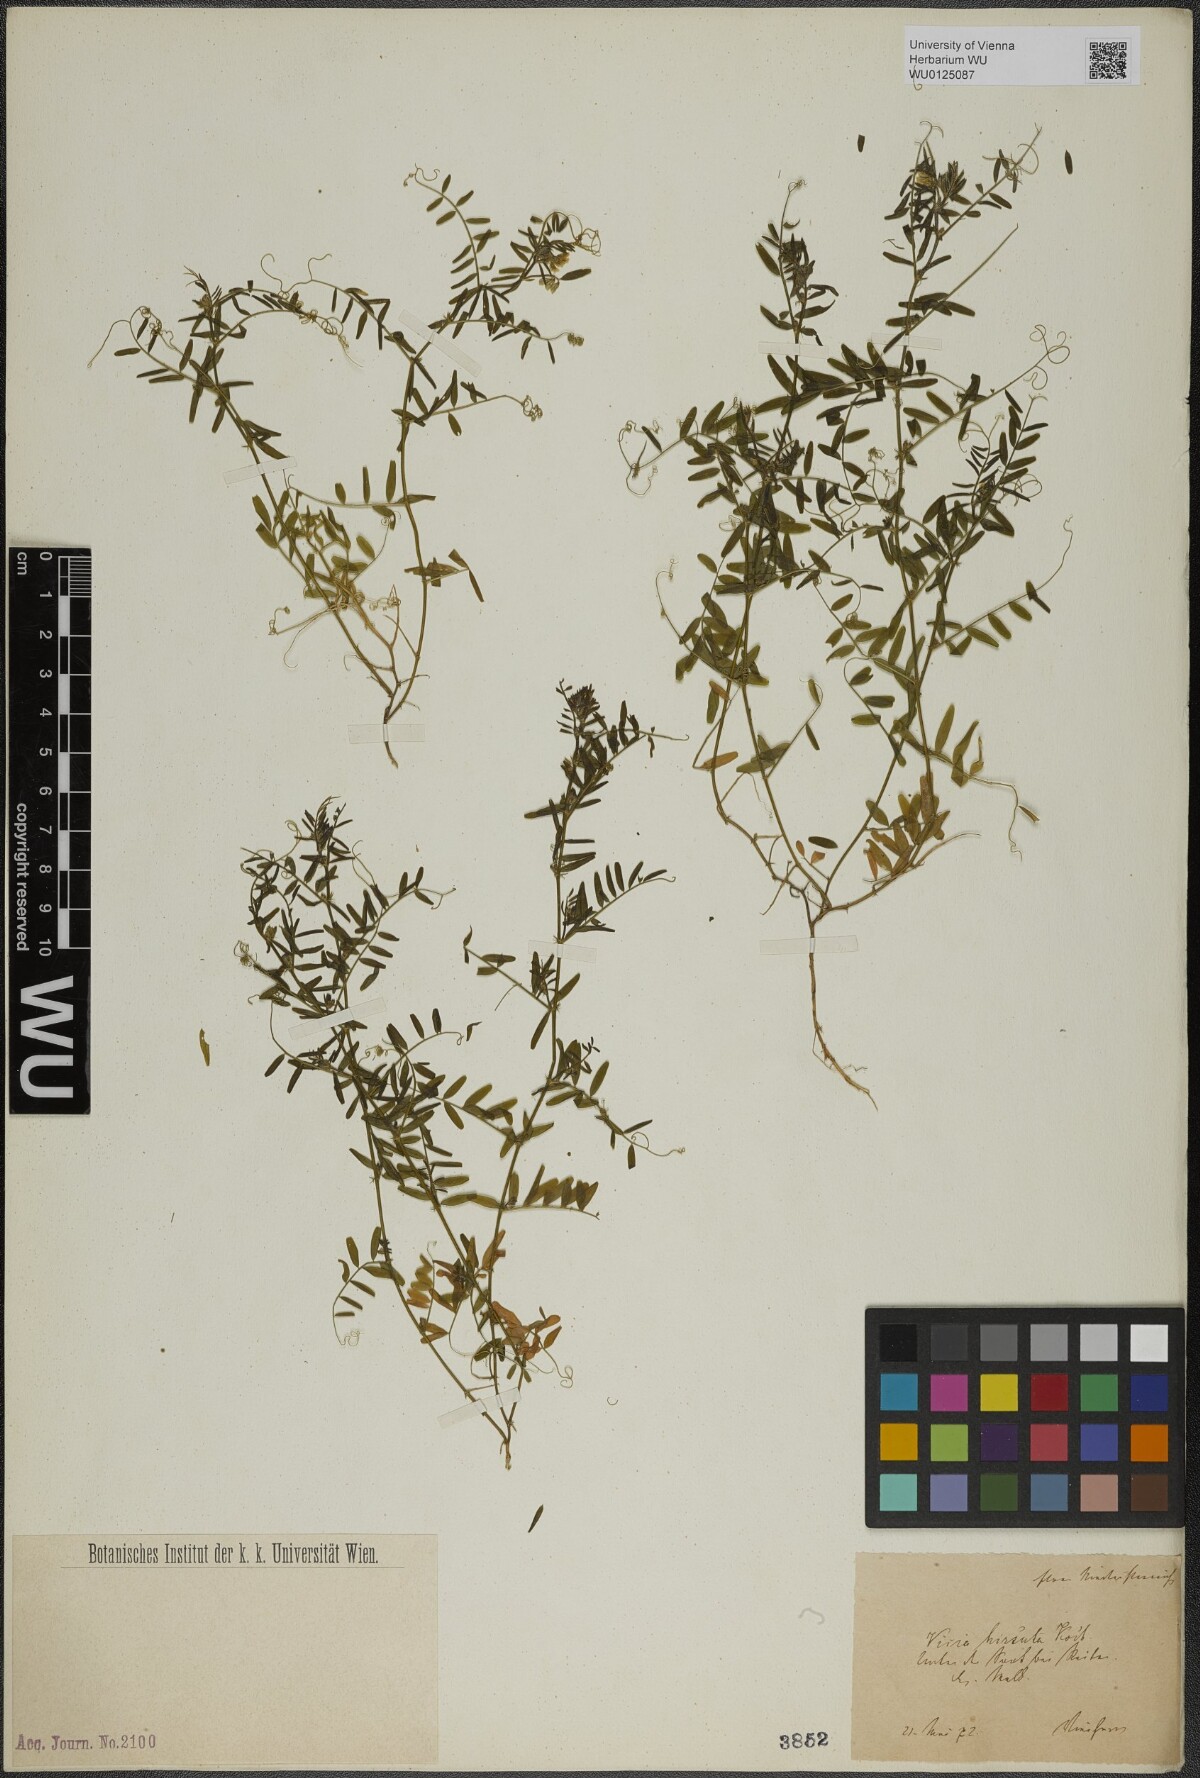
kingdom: Plantae
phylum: Tracheophyta
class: Magnoliopsida
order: Fabales
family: Fabaceae
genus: Vicia
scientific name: Vicia hirsuta
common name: Tiny vetch
